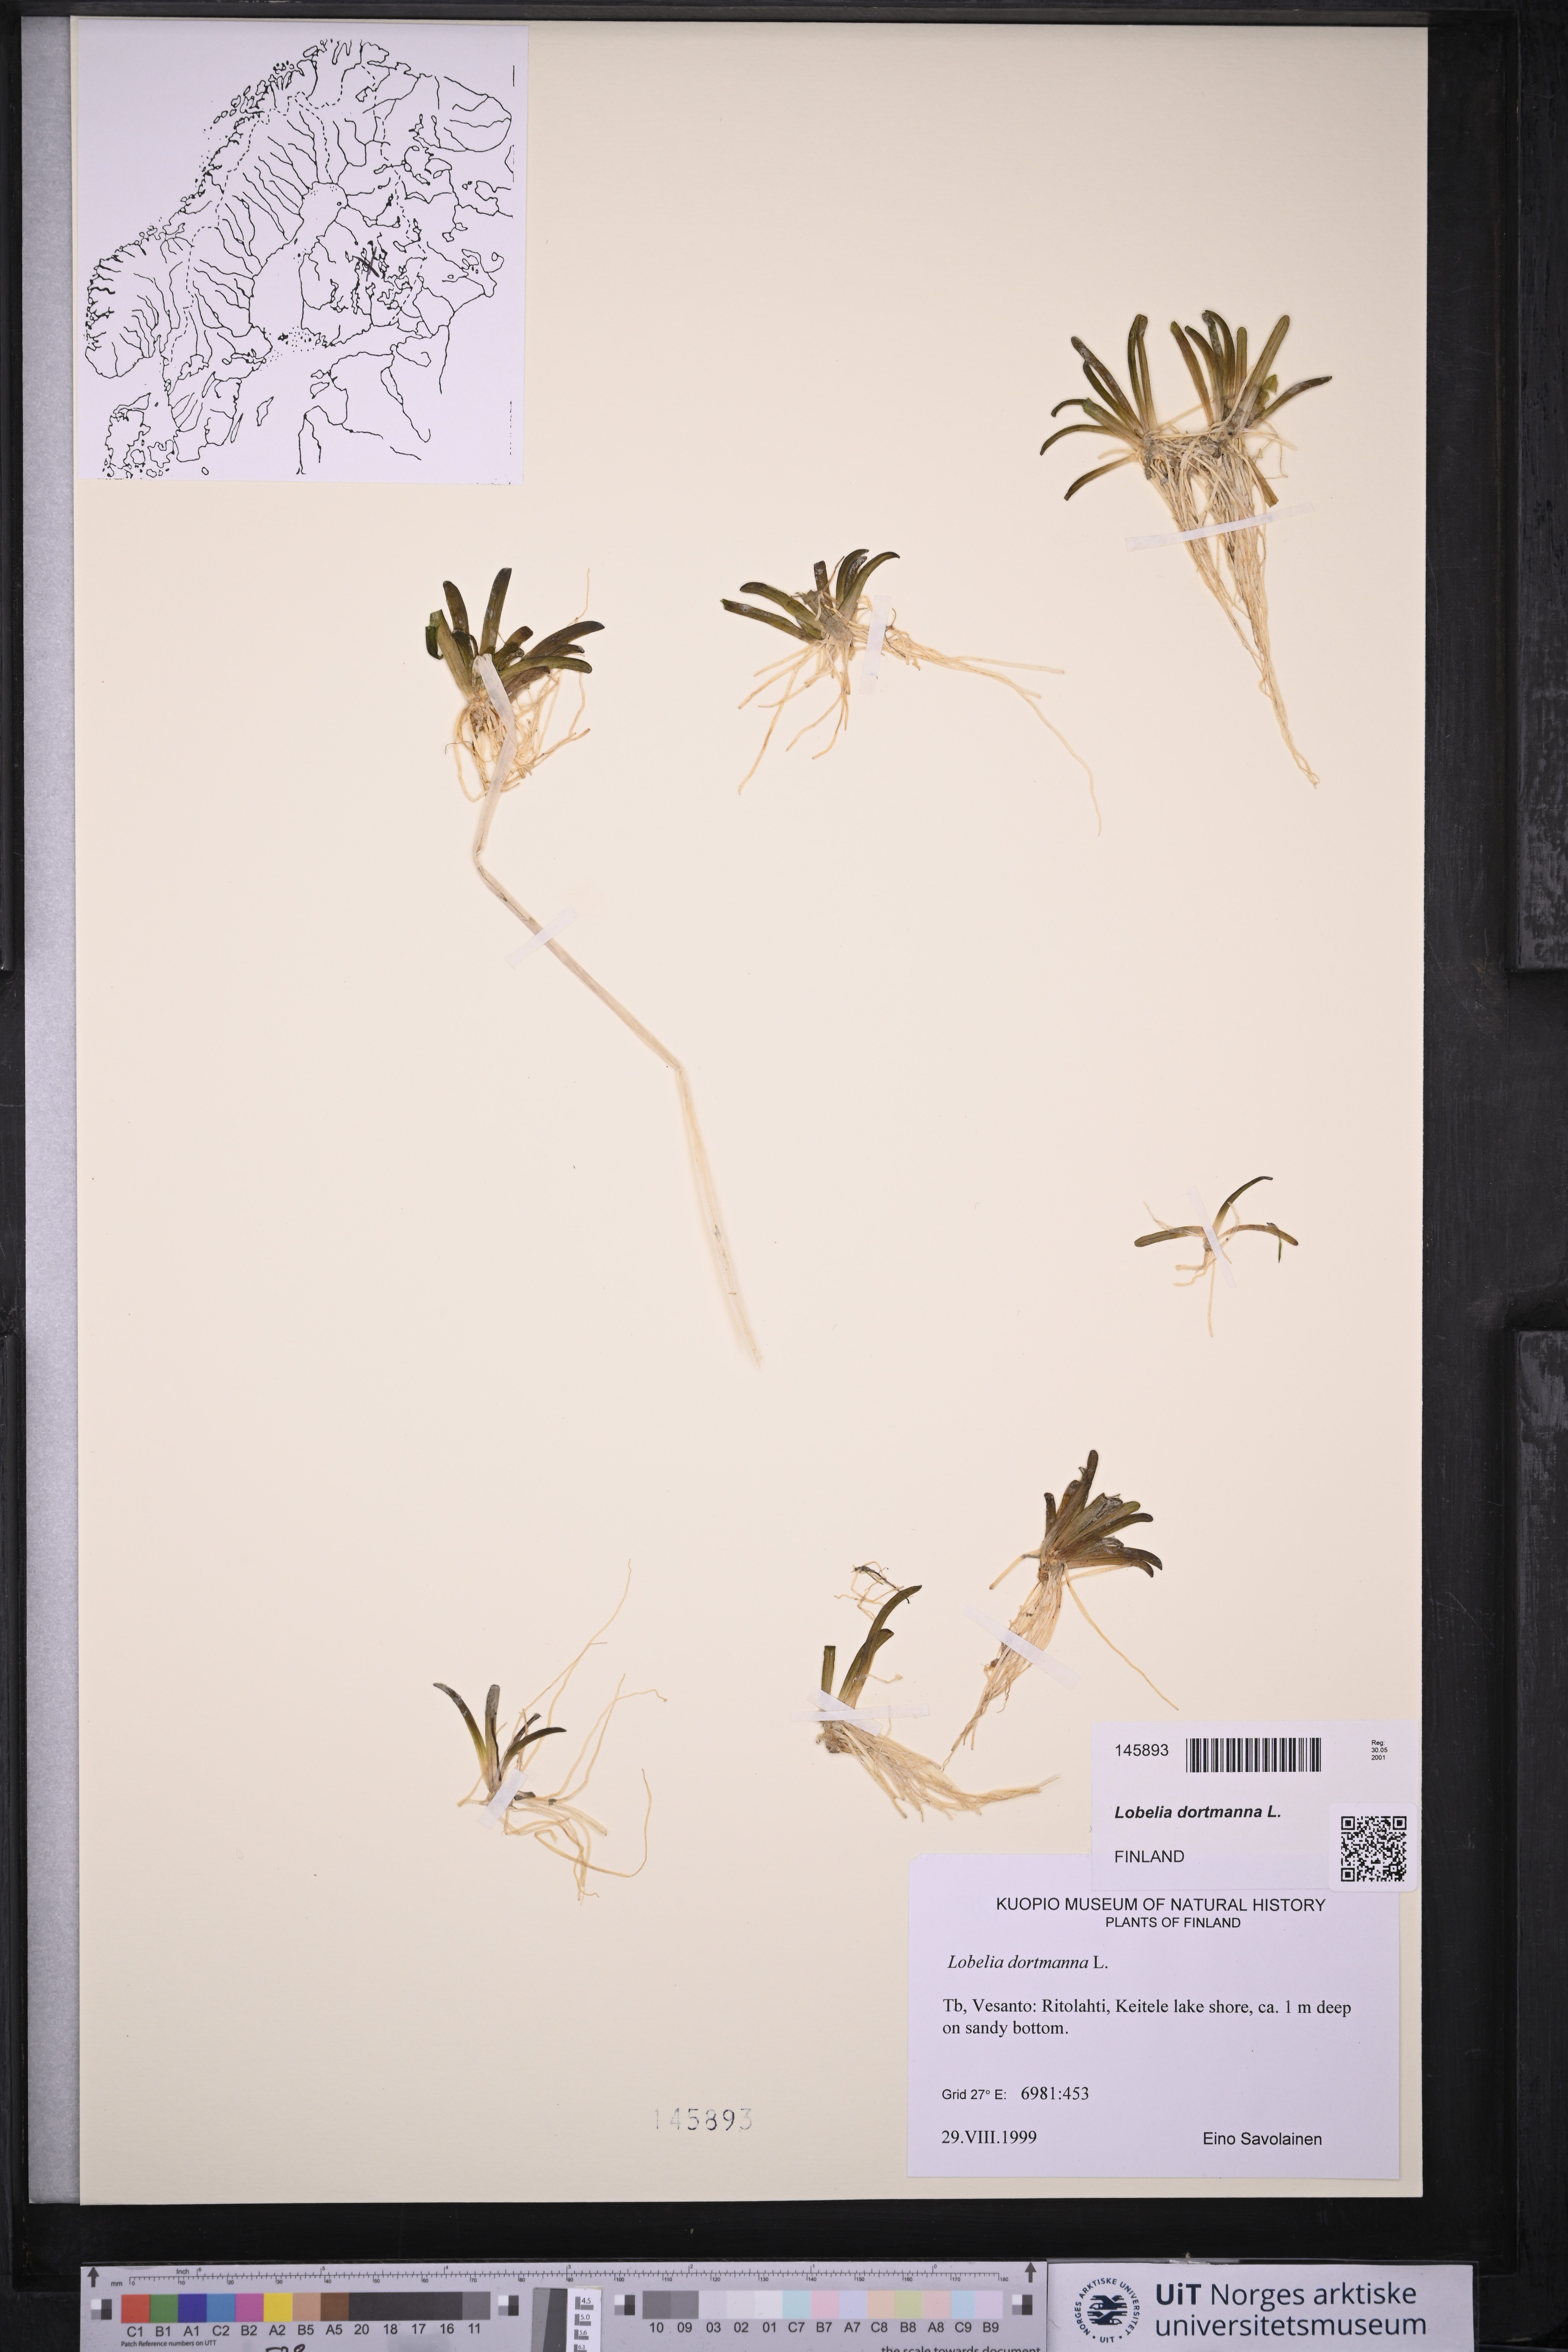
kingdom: Plantae
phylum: Tracheophyta
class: Magnoliopsida
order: Asterales
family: Campanulaceae
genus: Lobelia
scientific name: Lobelia dortmanna
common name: Water lobelia
